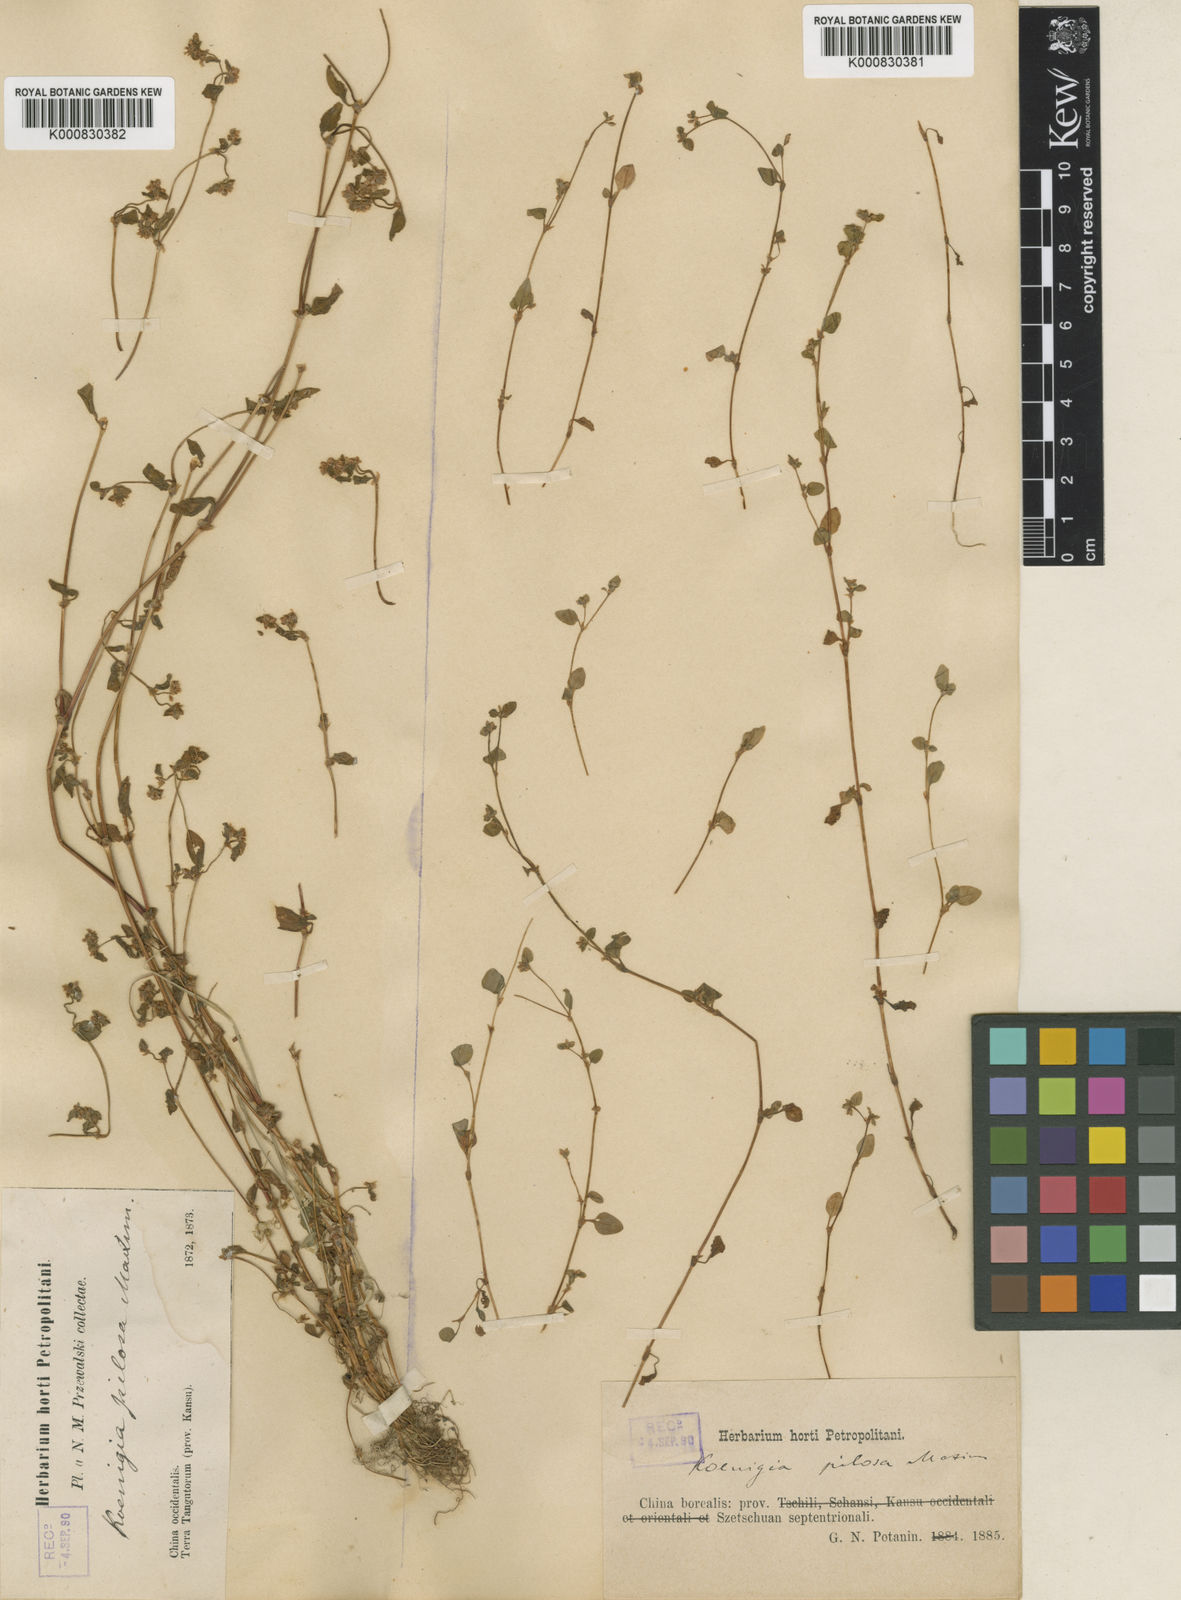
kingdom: Plantae
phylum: Tracheophyta
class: Magnoliopsida
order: Caryophyllales
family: Polygonaceae
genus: Koenigia
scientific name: Koenigia pilosa
